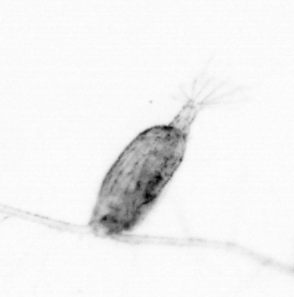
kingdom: Animalia
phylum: Arthropoda
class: Copepoda
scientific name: Copepoda
